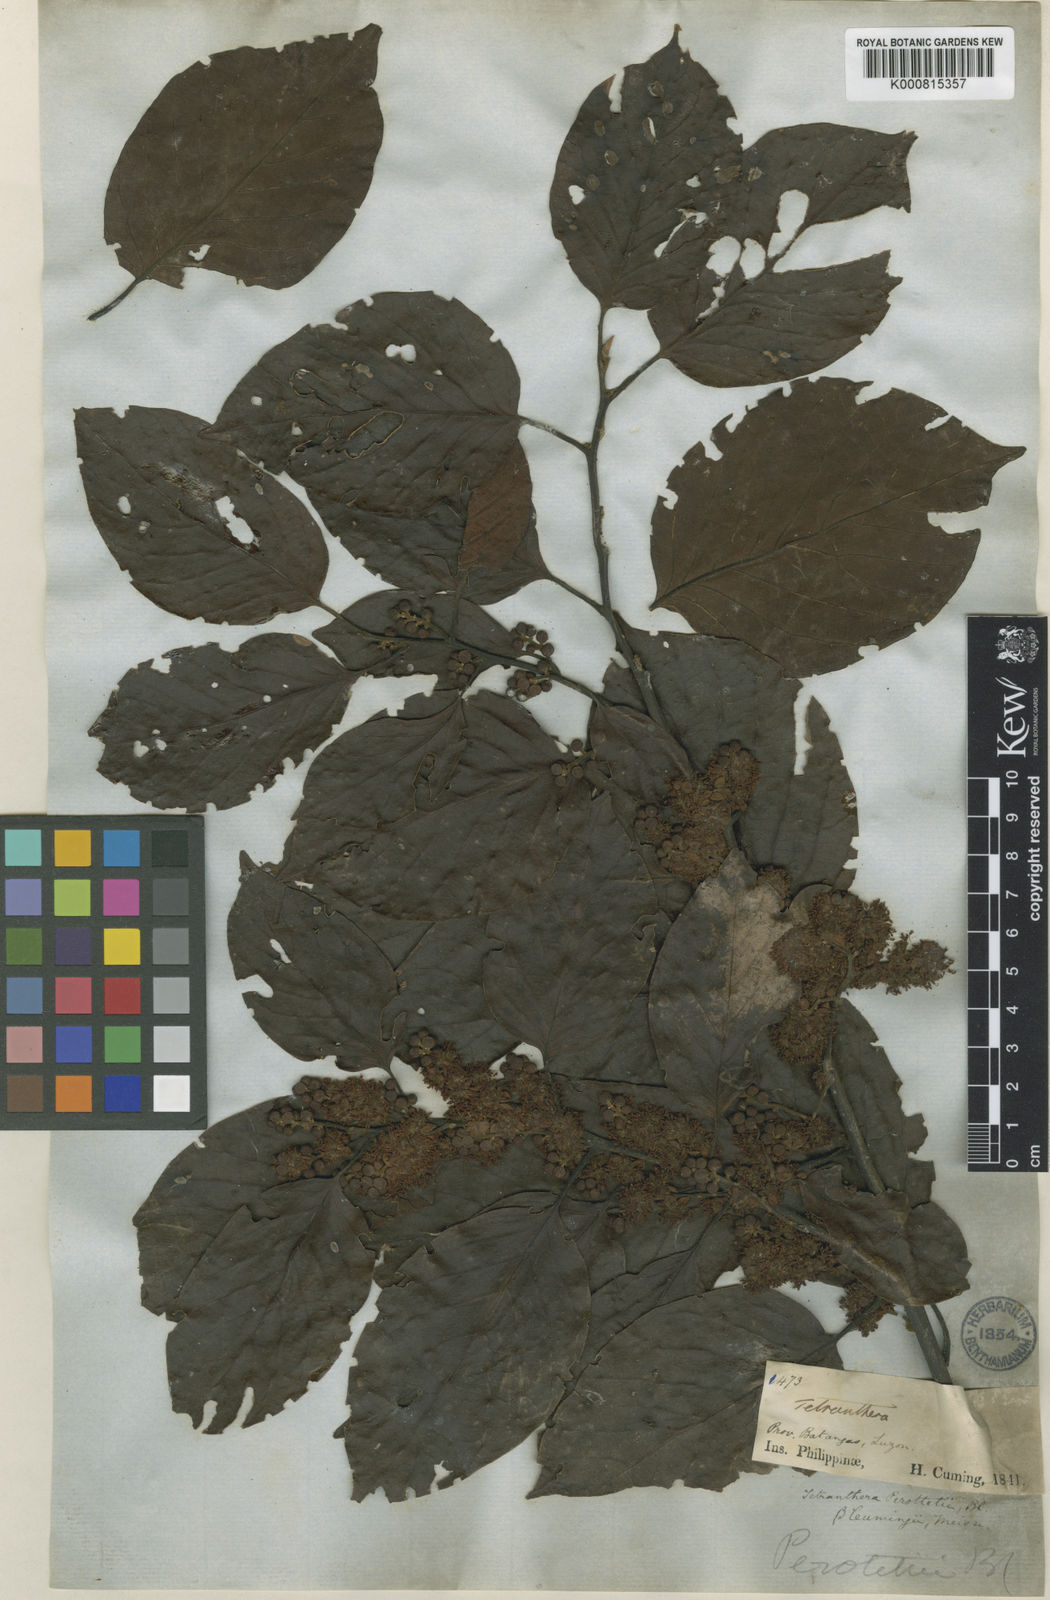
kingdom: Plantae
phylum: Tracheophyta
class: Magnoliopsida
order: Laurales
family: Lauraceae
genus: Litsea
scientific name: Litsea cordata
